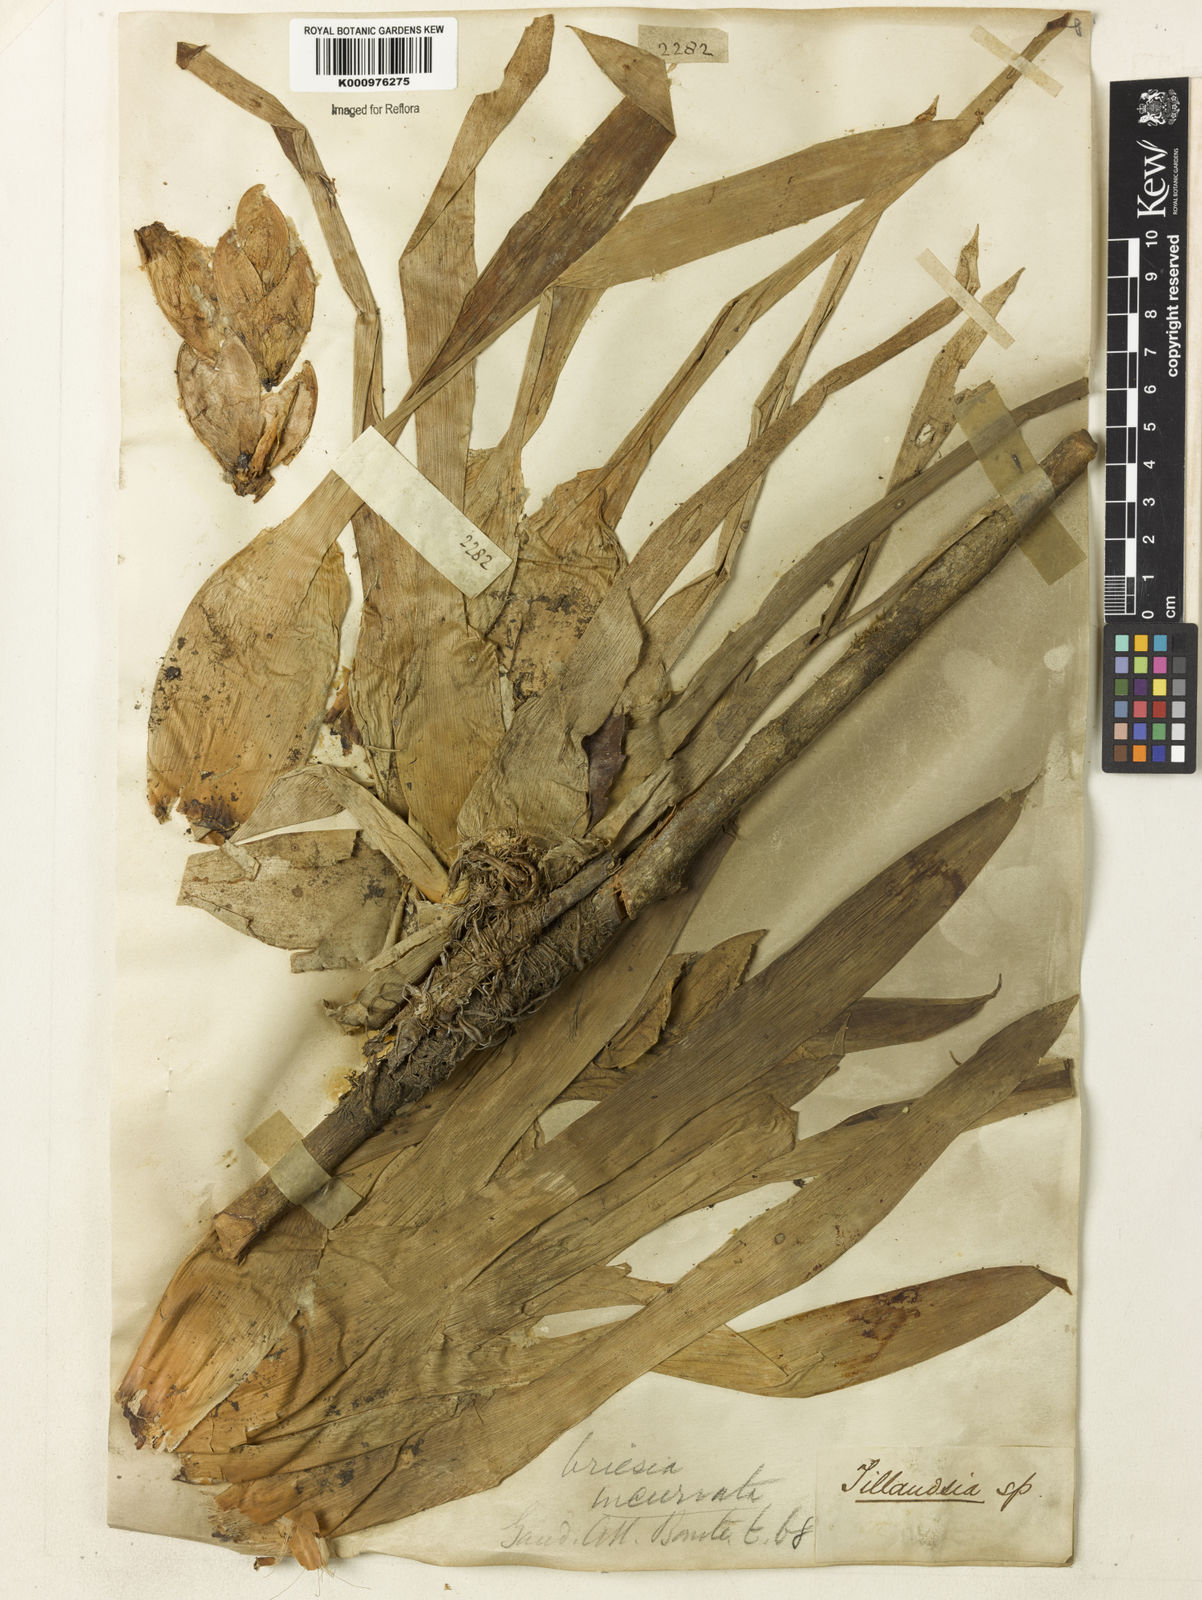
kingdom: Plantae
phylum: Tracheophyta
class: Liliopsida
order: Poales
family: Bromeliaceae
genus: Vriesea
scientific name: Vriesea incurvata
